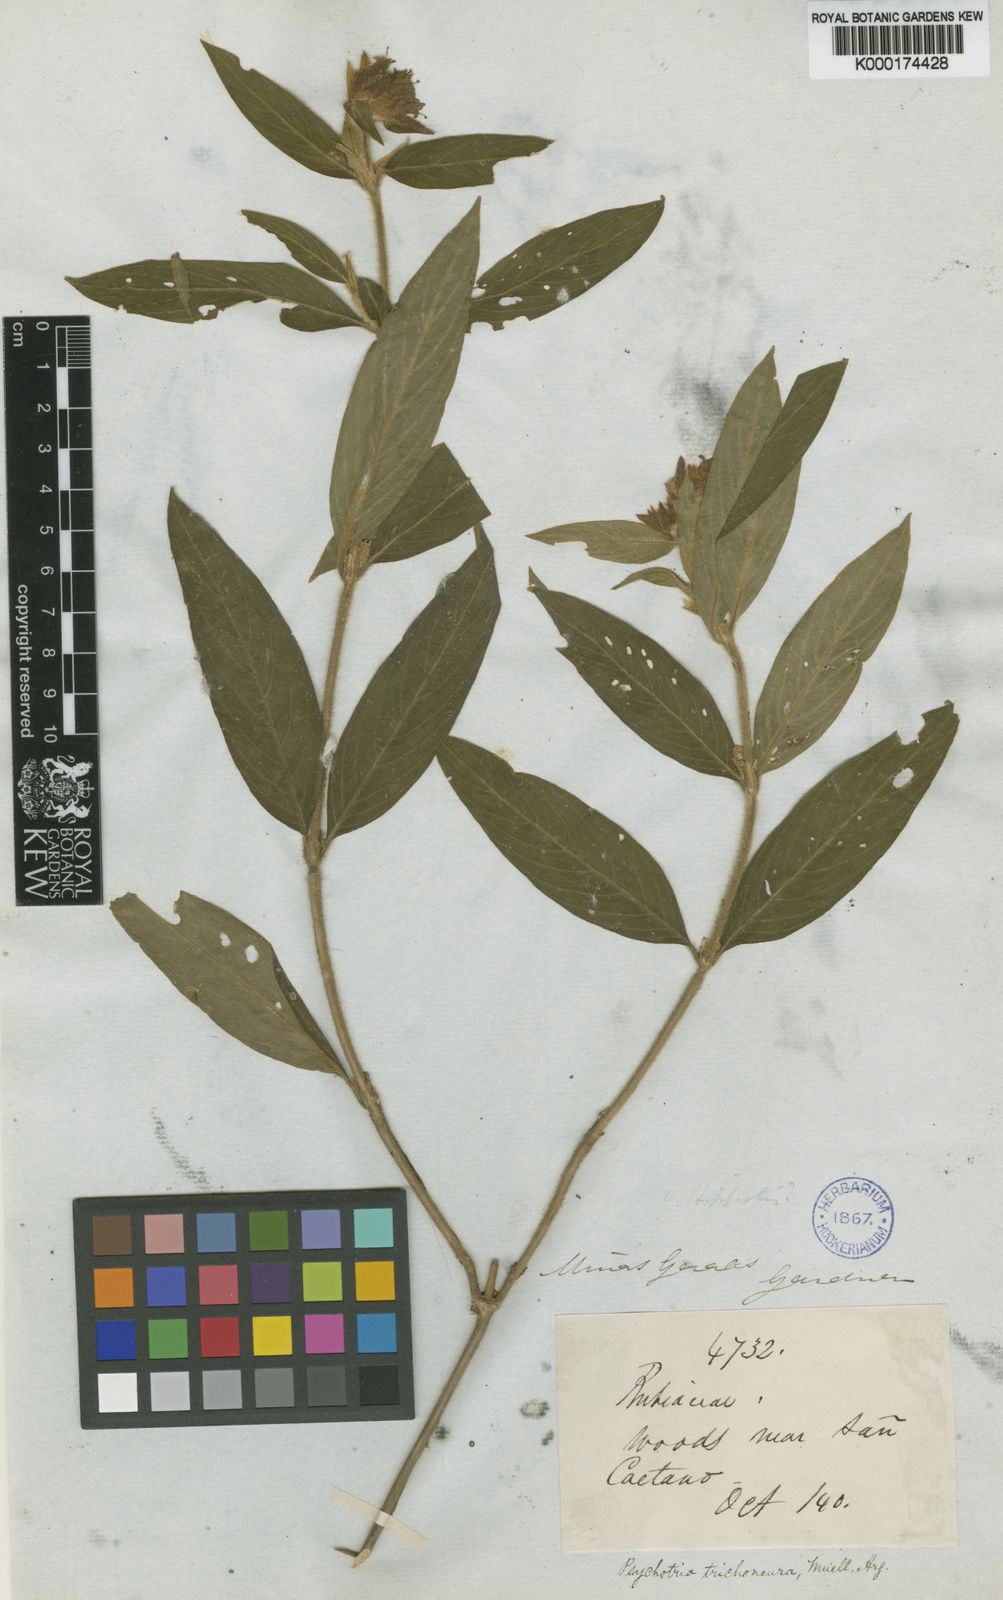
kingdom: Plantae
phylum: Tracheophyta
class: Magnoliopsida
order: Gentianales
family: Rubiaceae
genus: Psychotria
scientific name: Psychotria
